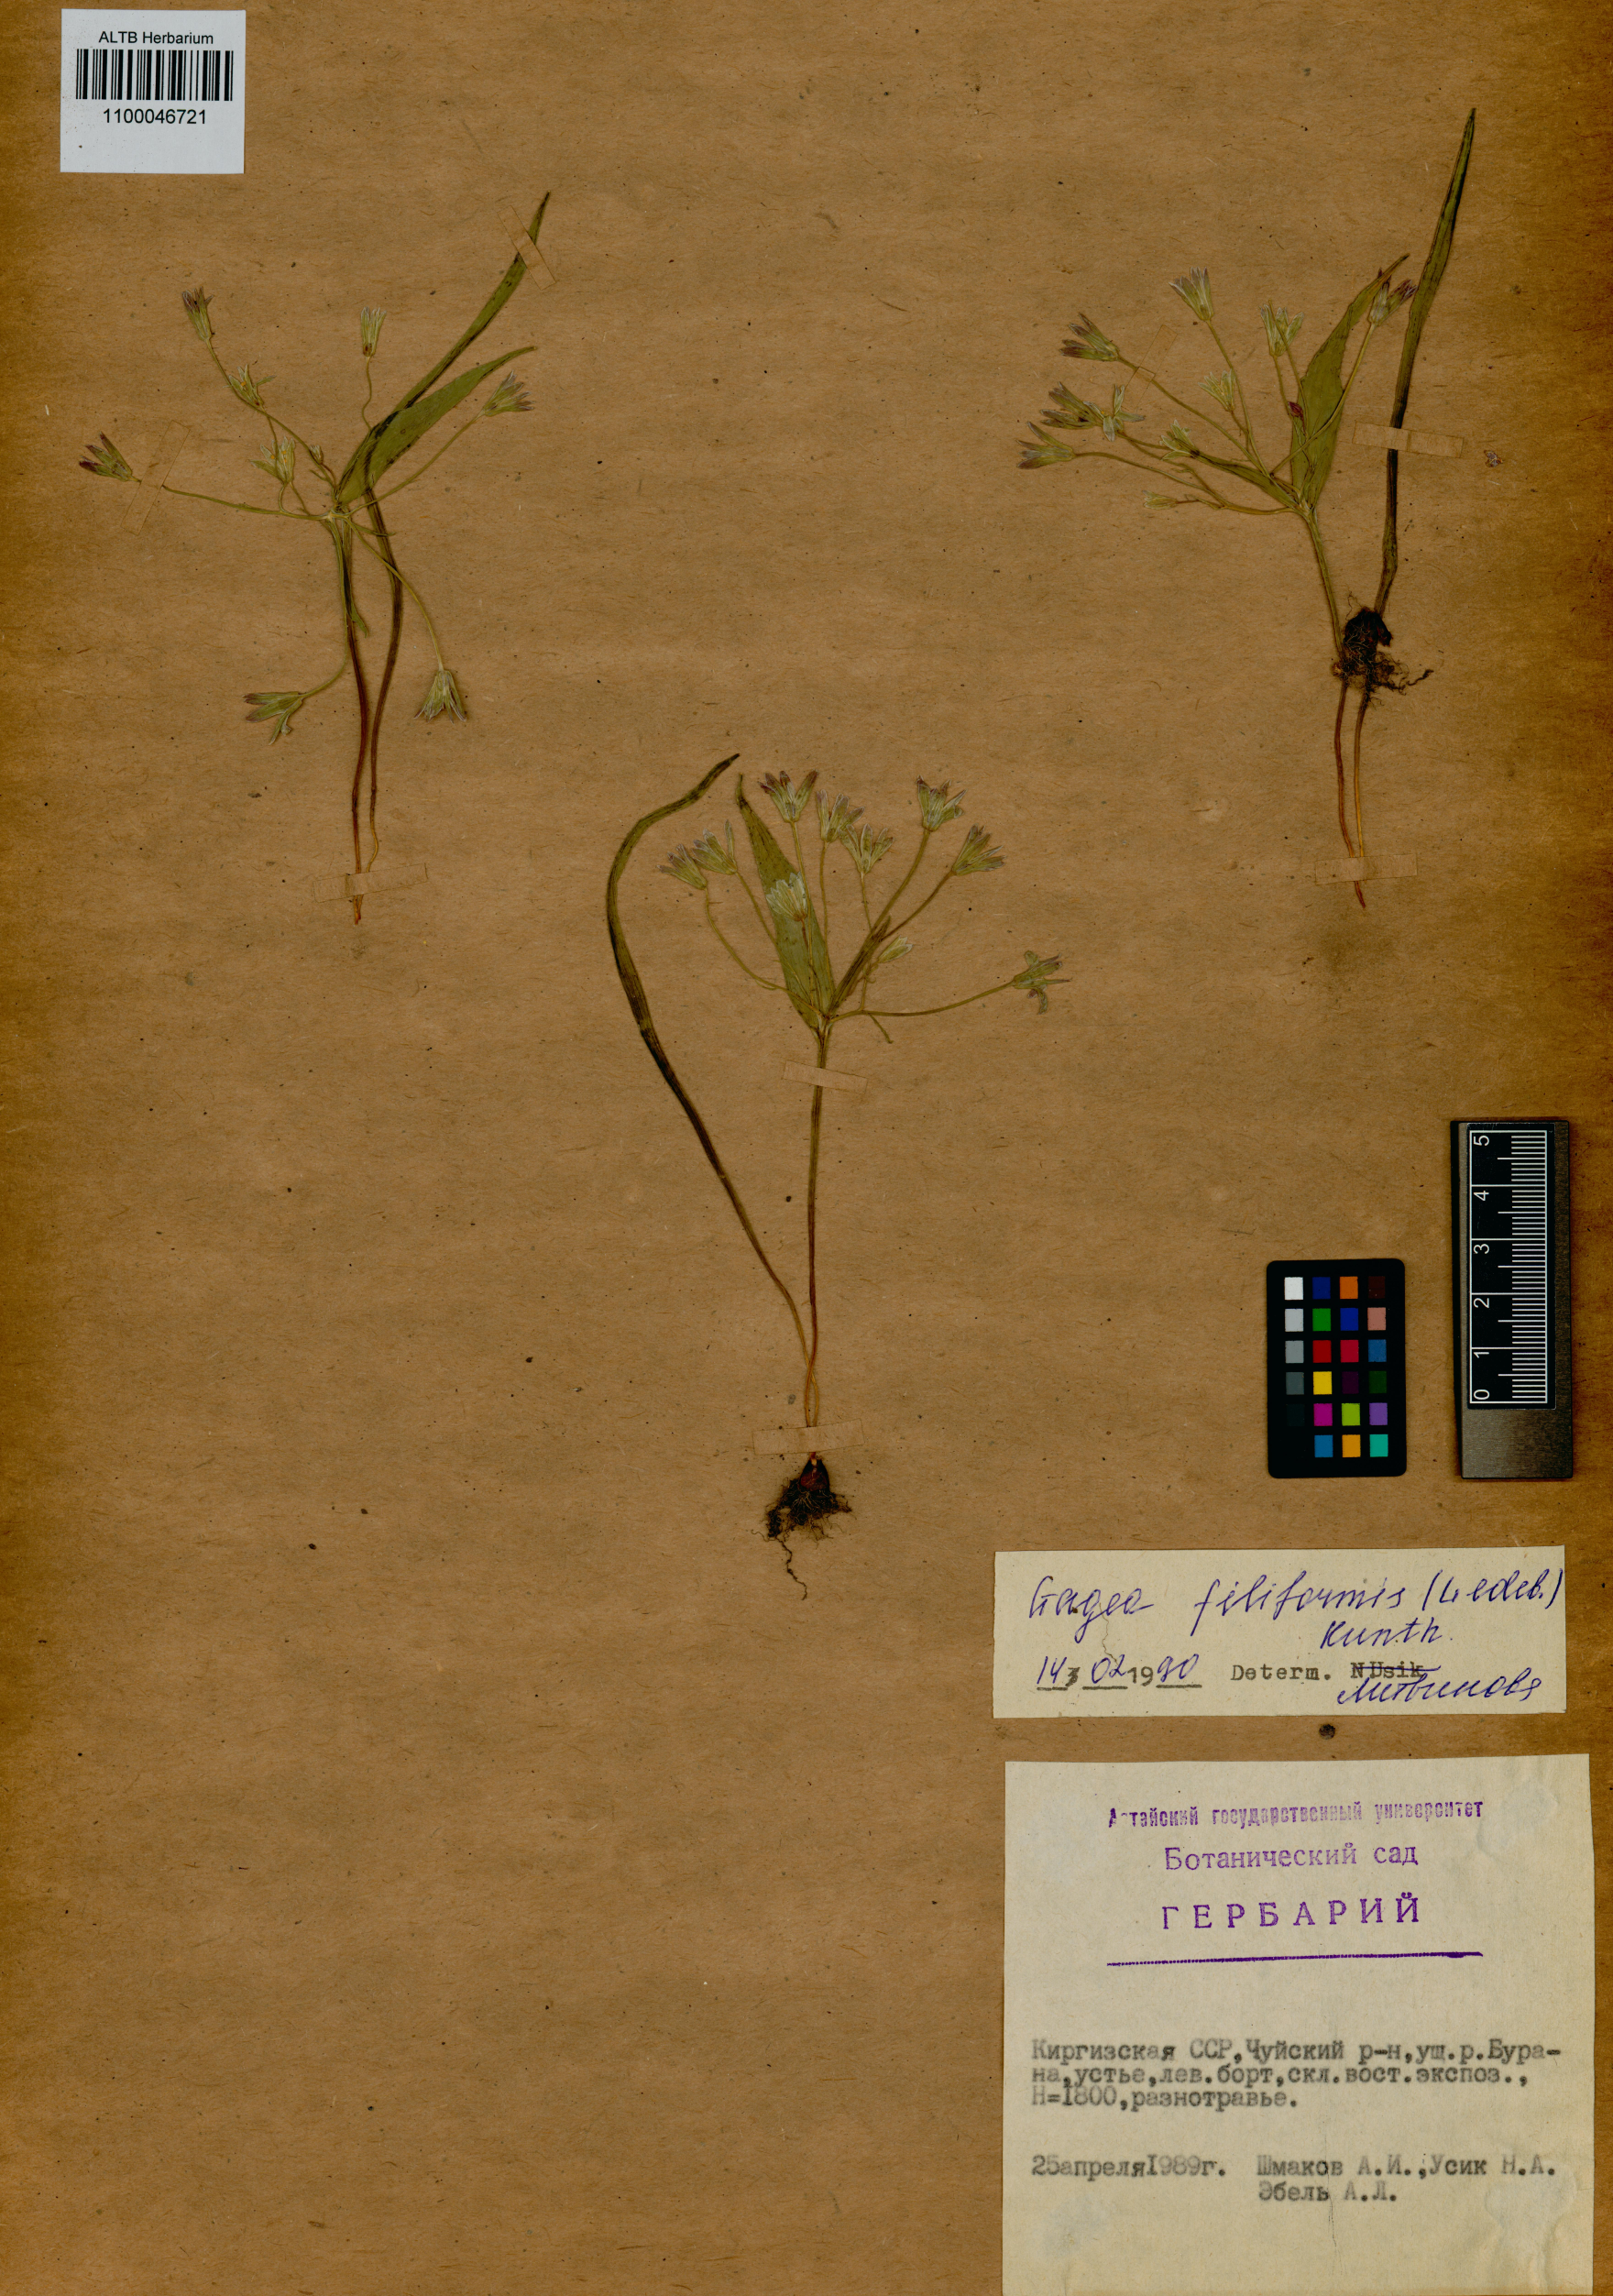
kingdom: Plantae
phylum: Tracheophyta
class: Liliopsida
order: Liliales
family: Liliaceae
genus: Gagea
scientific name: Gagea filiformis
